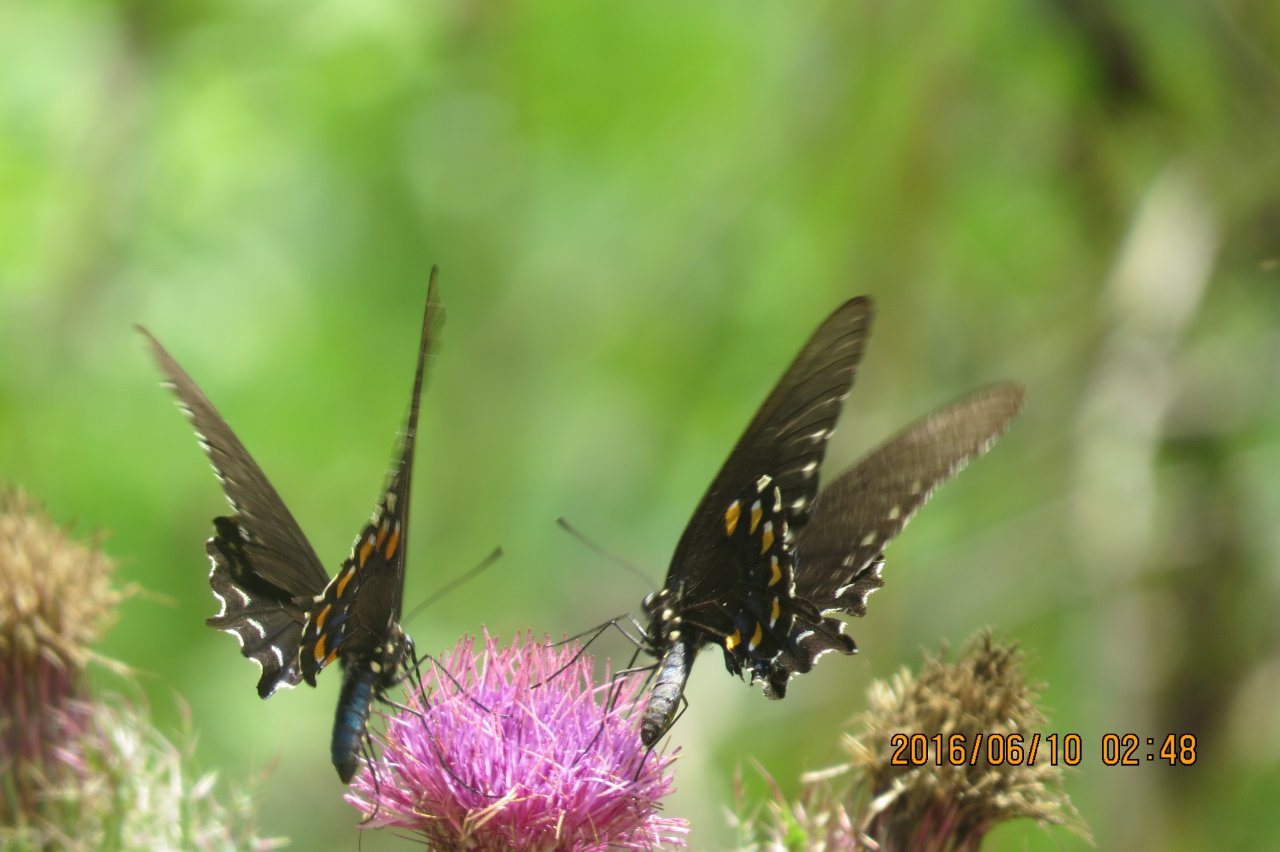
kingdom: Animalia
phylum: Arthropoda
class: Insecta
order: Lepidoptera
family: Papilionidae
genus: Battus
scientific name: Battus philenor
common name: Pipevine Swallowtail
